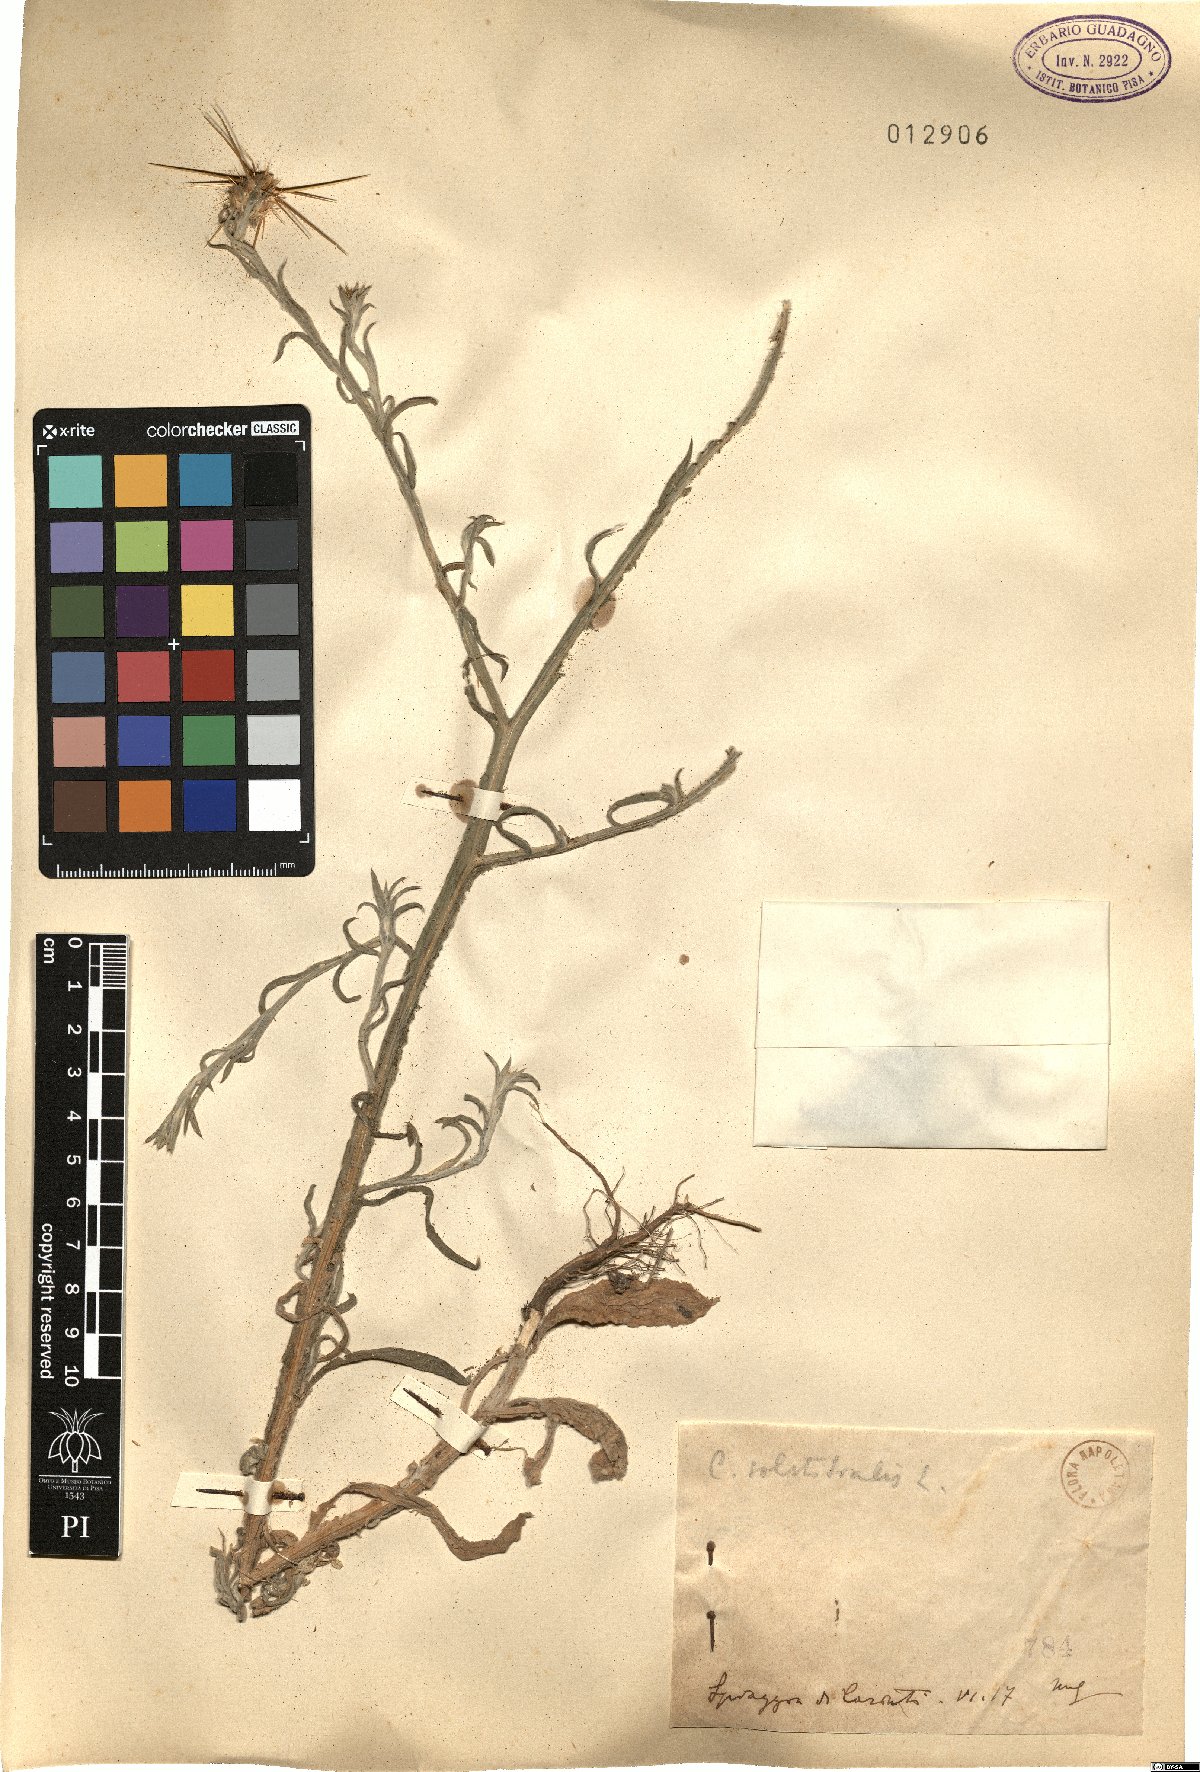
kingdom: Plantae
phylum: Tracheophyta
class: Magnoliopsida
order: Asterales
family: Asteraceae
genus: Centaurea
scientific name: Centaurea solstitialis
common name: Yellow star-thistle
